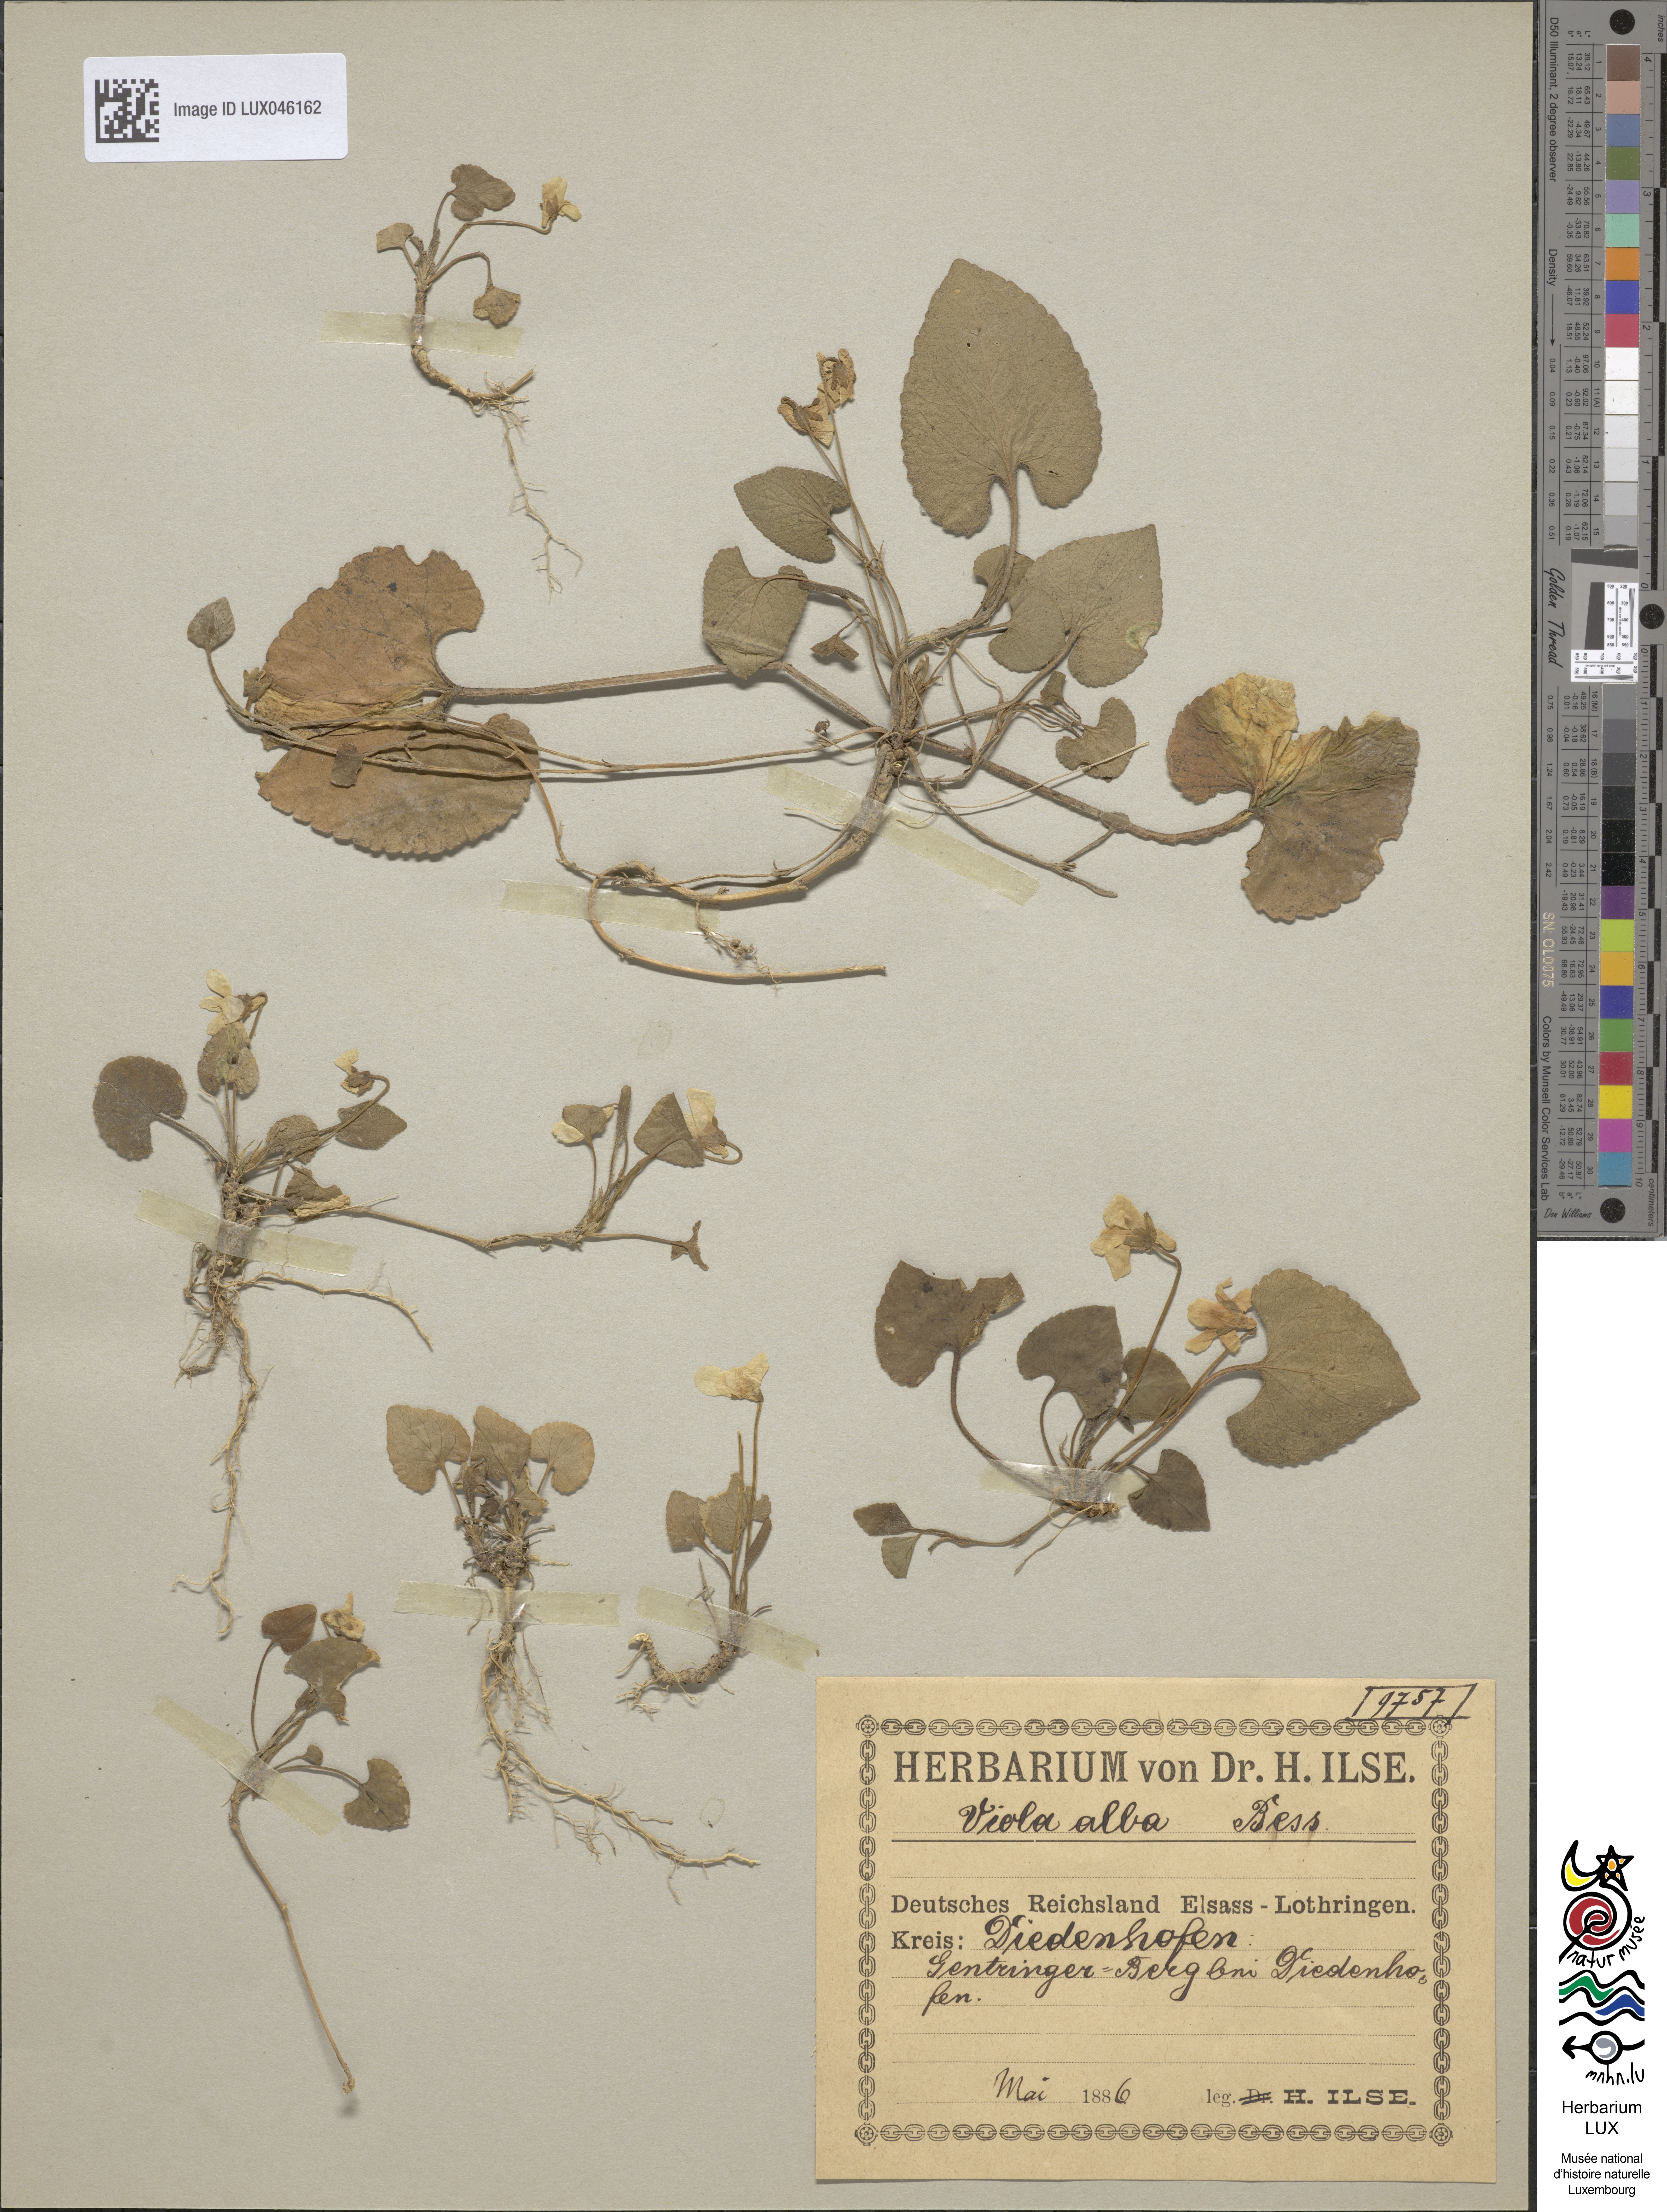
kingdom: Plantae
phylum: Tracheophyta
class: Magnoliopsida
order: Malpighiales
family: Violaceae
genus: Viola
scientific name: Viola alba
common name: White violet
